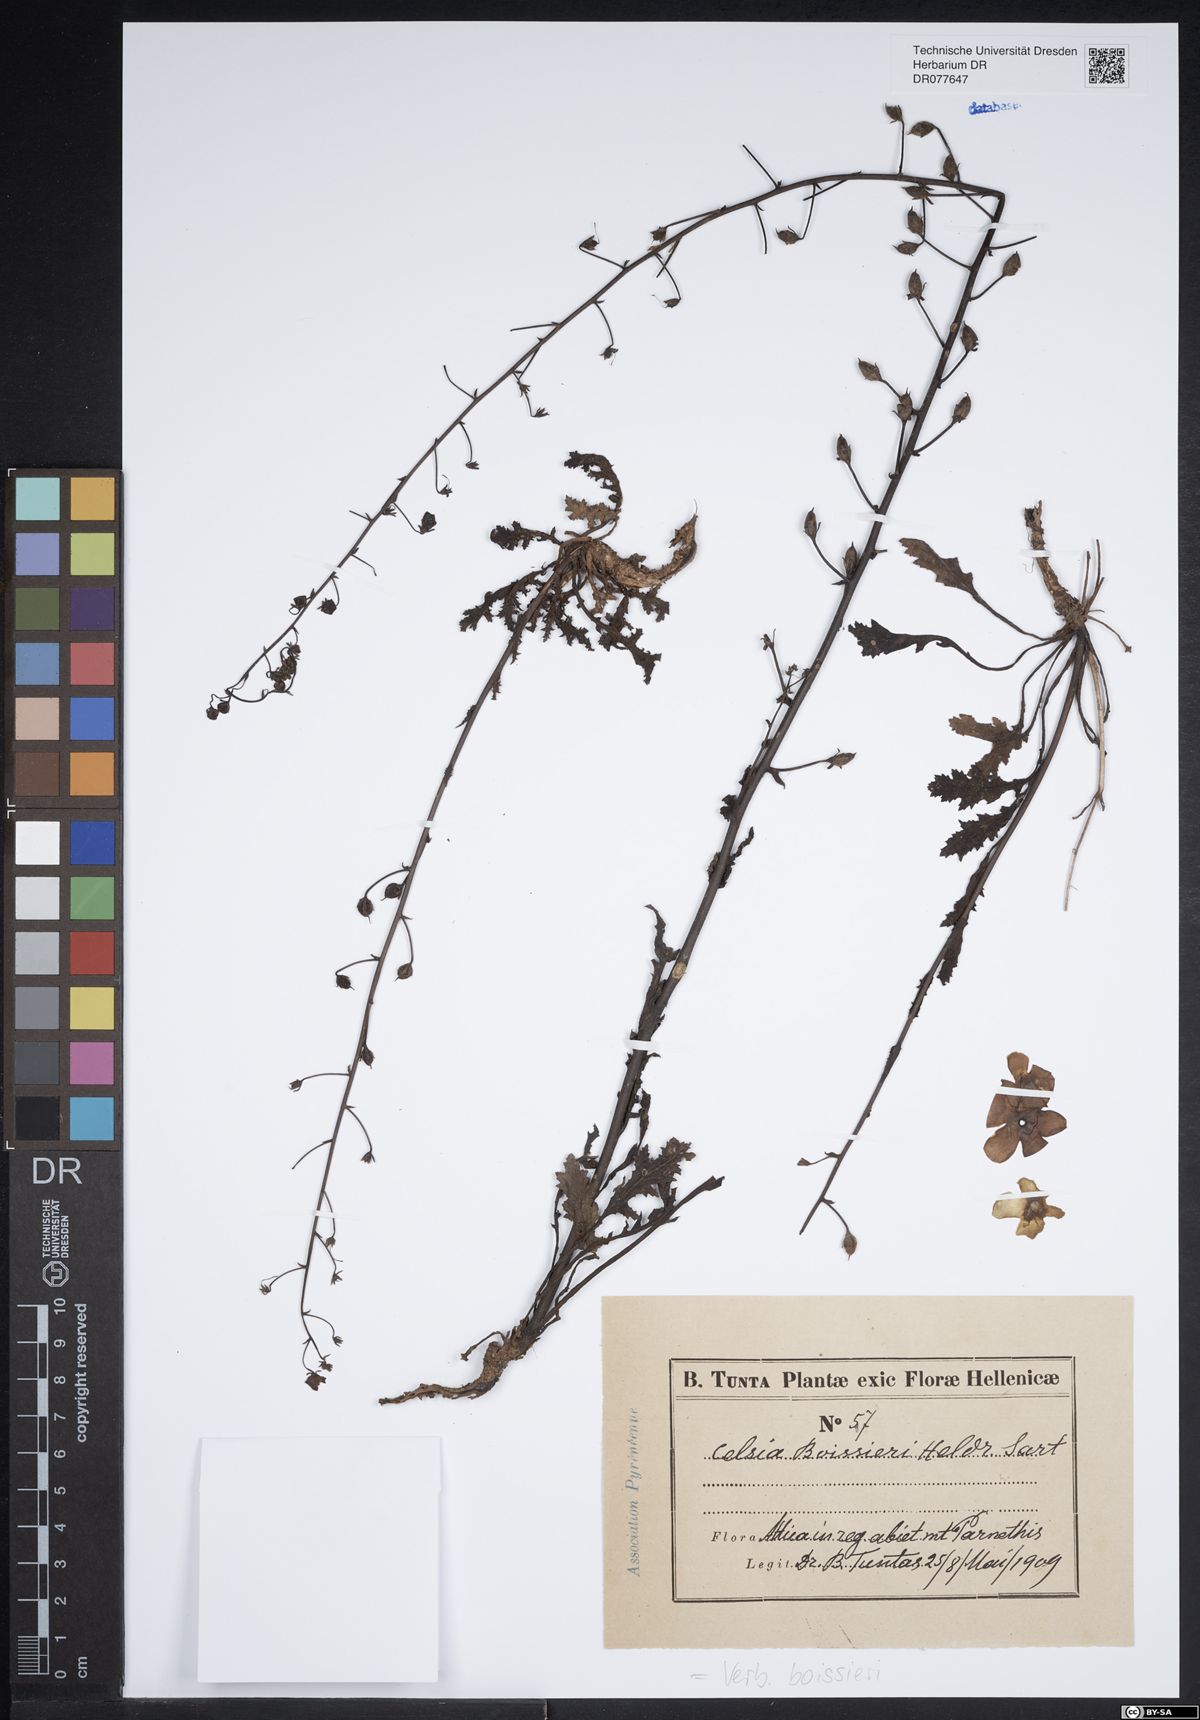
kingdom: Plantae
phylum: Tracheophyta
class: Magnoliopsida
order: Lamiales
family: Scrophulariaceae
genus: Verbascum
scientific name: Verbascum boissieri
